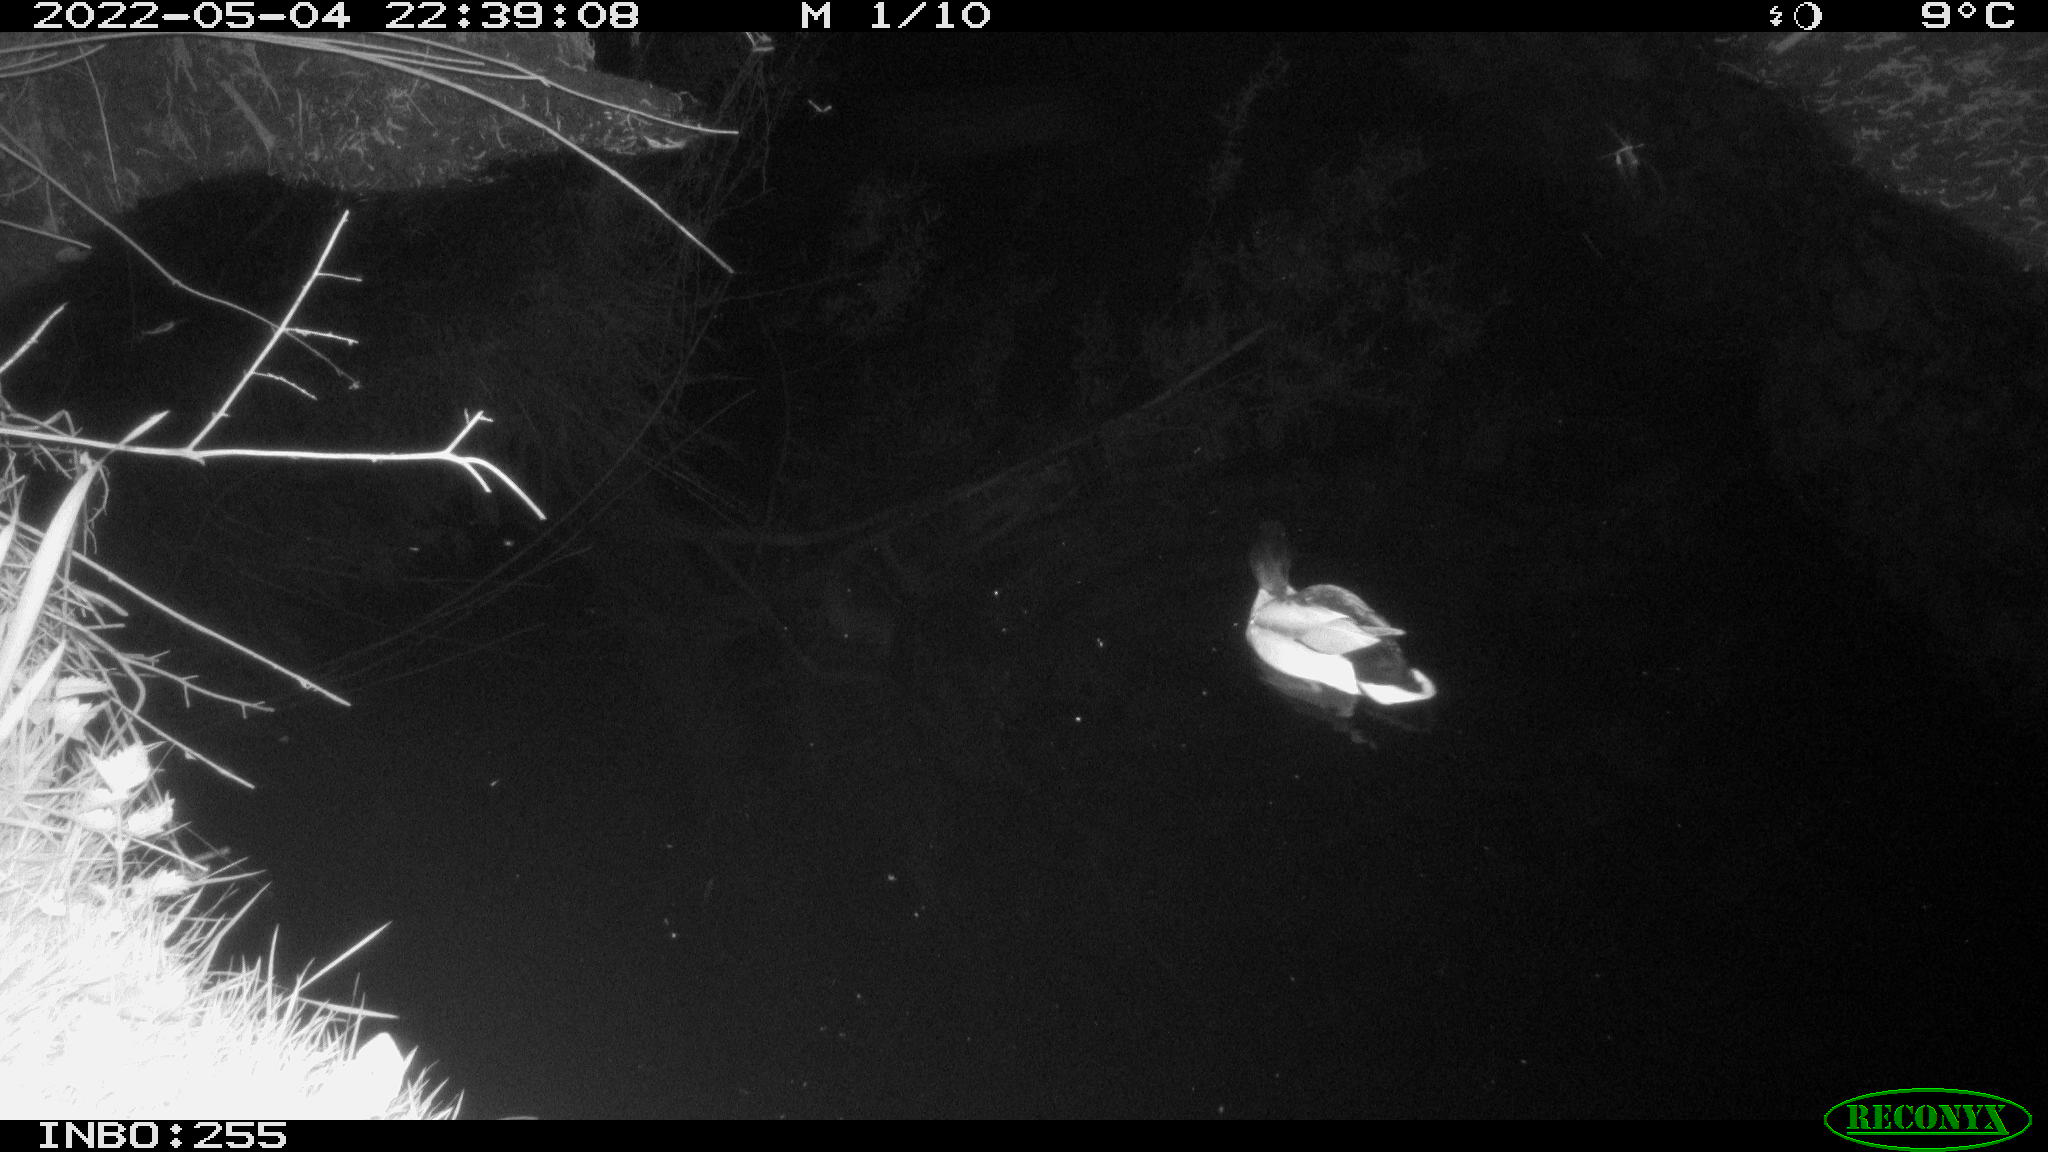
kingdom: Animalia
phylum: Chordata
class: Aves
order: Anseriformes
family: Anatidae
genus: Anas
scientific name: Anas platyrhynchos
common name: Mallard
